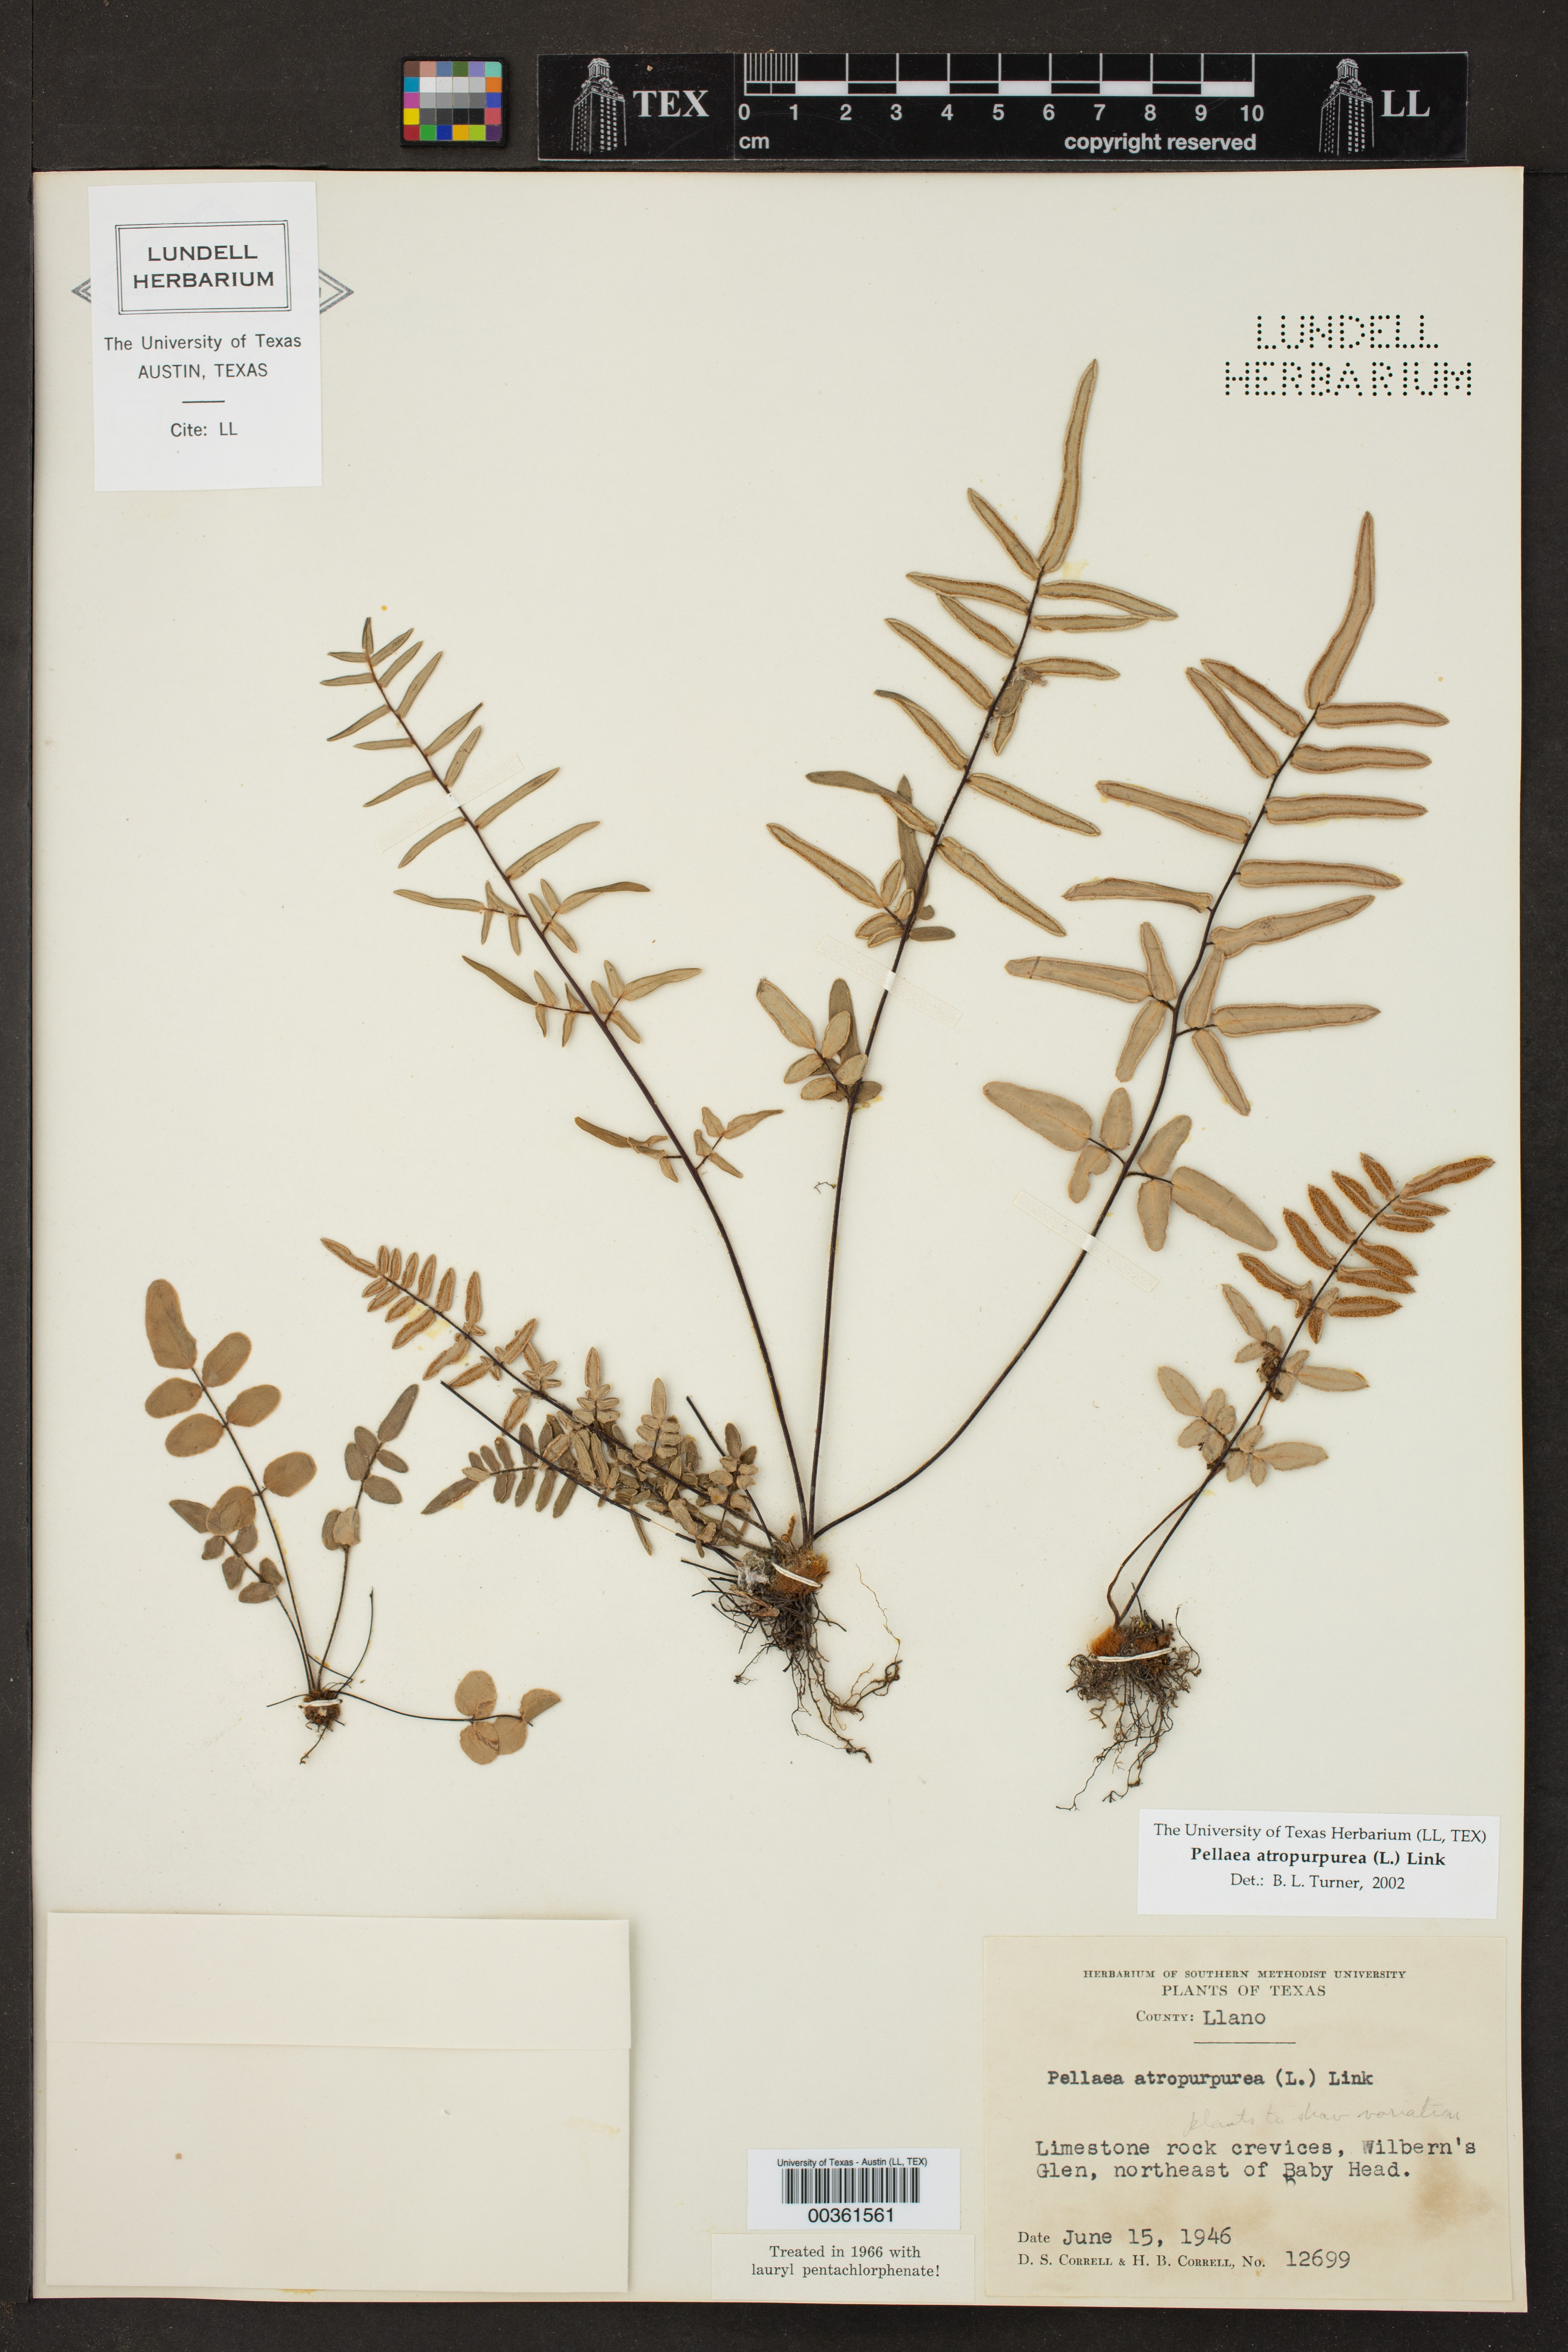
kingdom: Plantae
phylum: Tracheophyta
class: Polypodiopsida
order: Polypodiales
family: Pteridaceae
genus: Pellaea
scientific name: Pellaea atropurpurea
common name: Hairy cliffbrake
